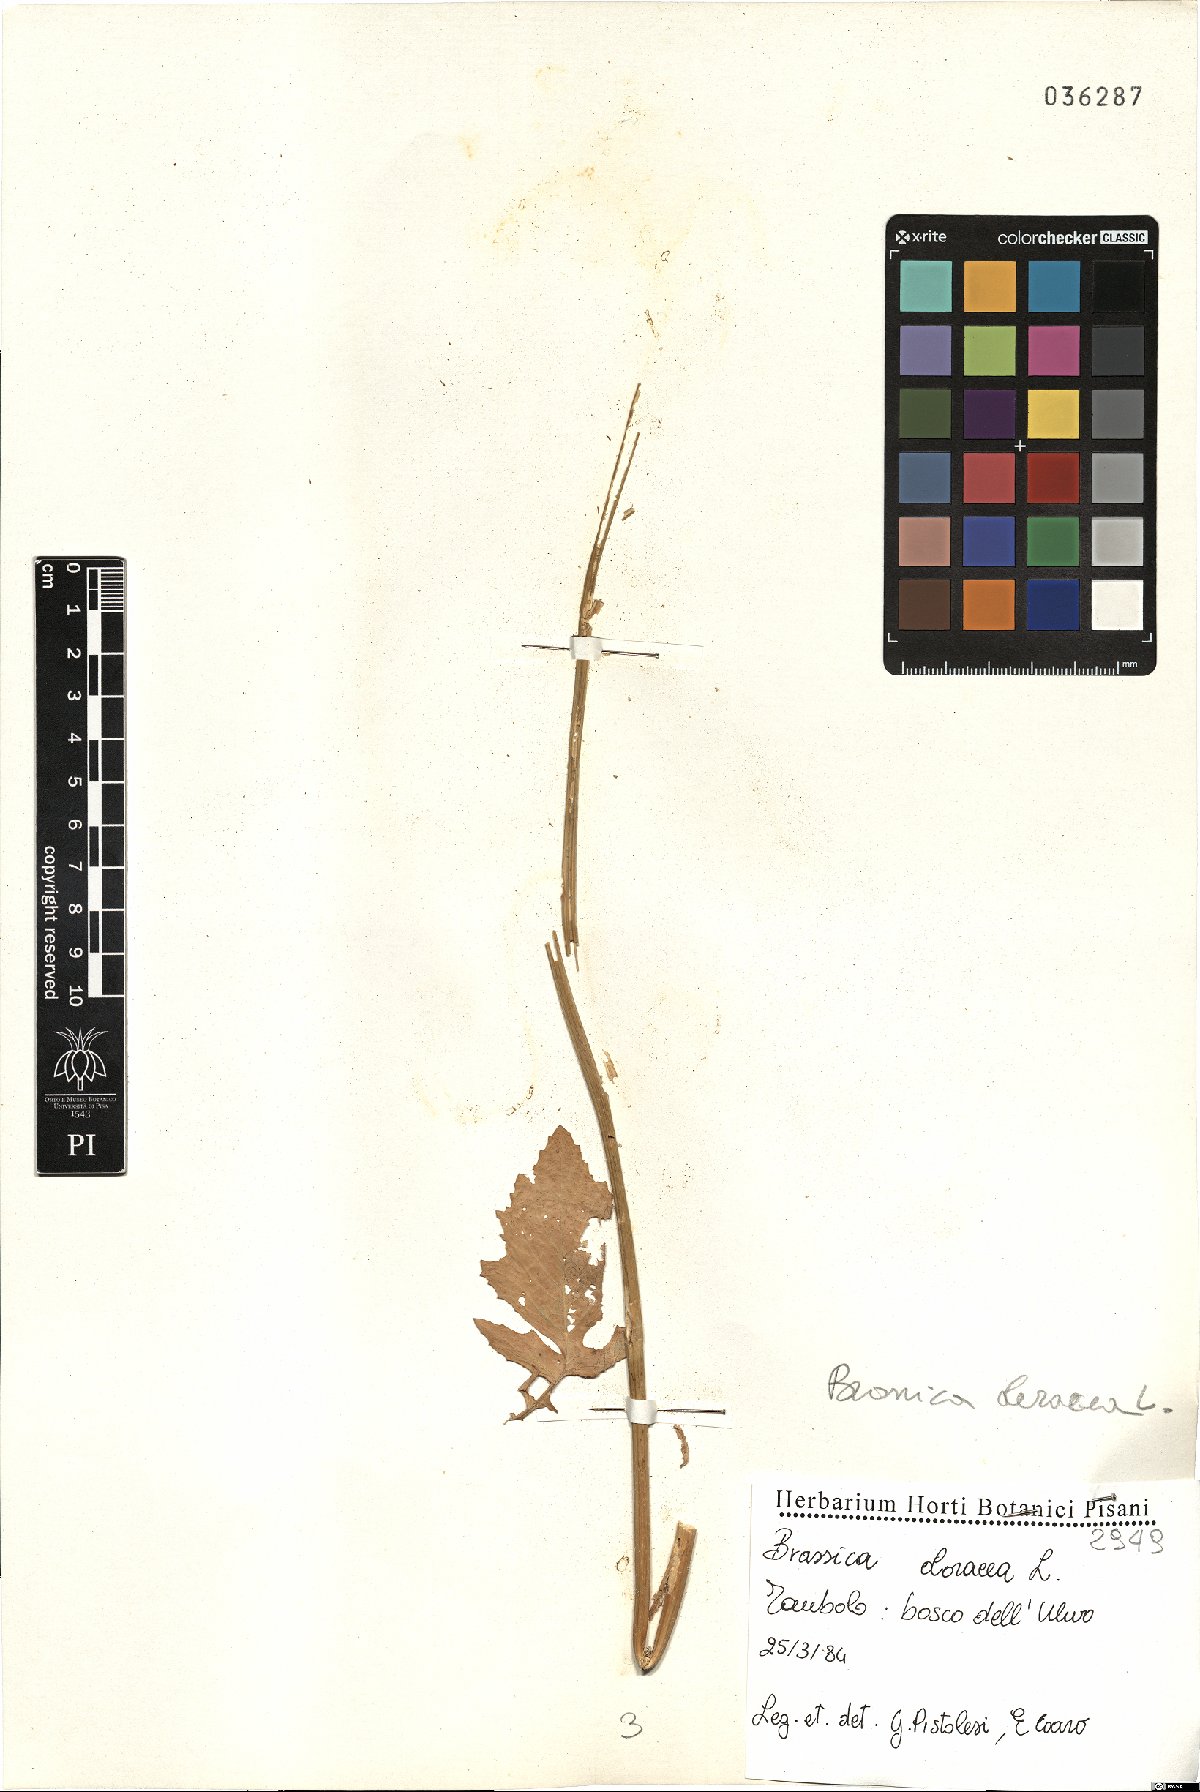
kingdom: Plantae
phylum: Tracheophyta
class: Magnoliopsida
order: Brassicales
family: Brassicaceae
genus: Brassica
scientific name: Brassica oleracea
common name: Cabbage
